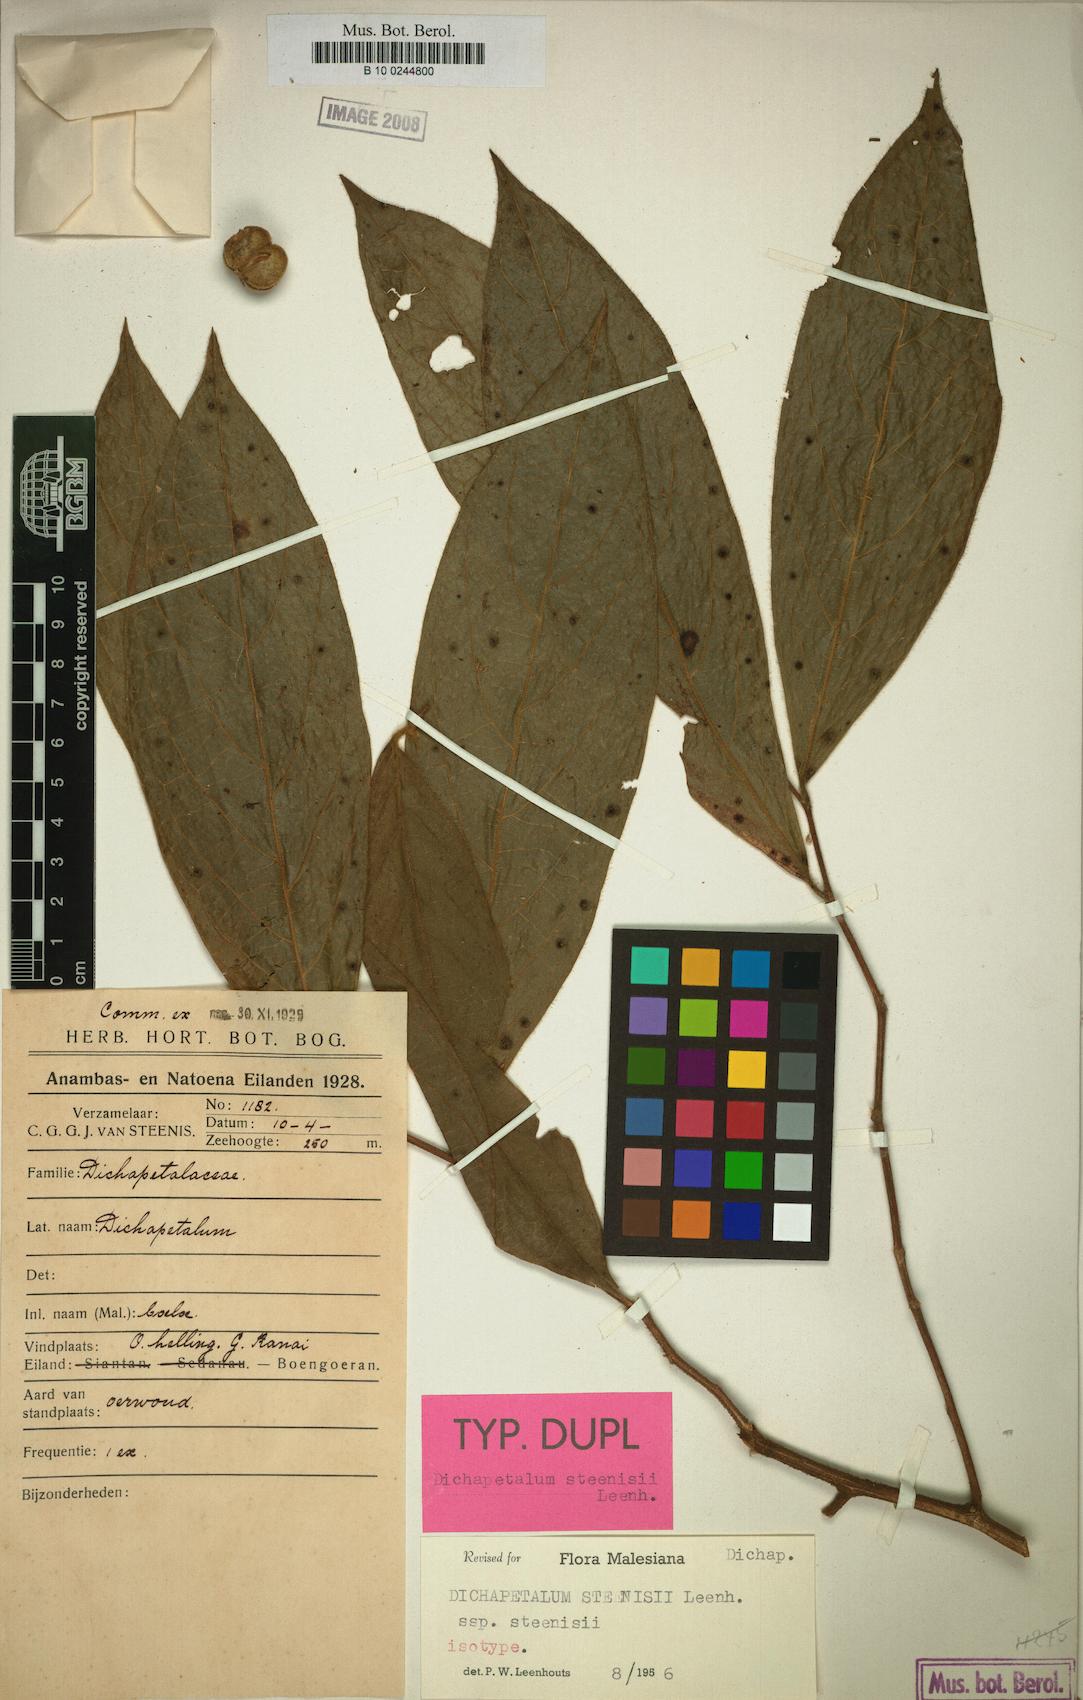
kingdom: Plantae
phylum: Tracheophyta
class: Magnoliopsida
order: Malpighiales
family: Dichapetalaceae
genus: Dichapetalum
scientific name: Dichapetalum steenisii
